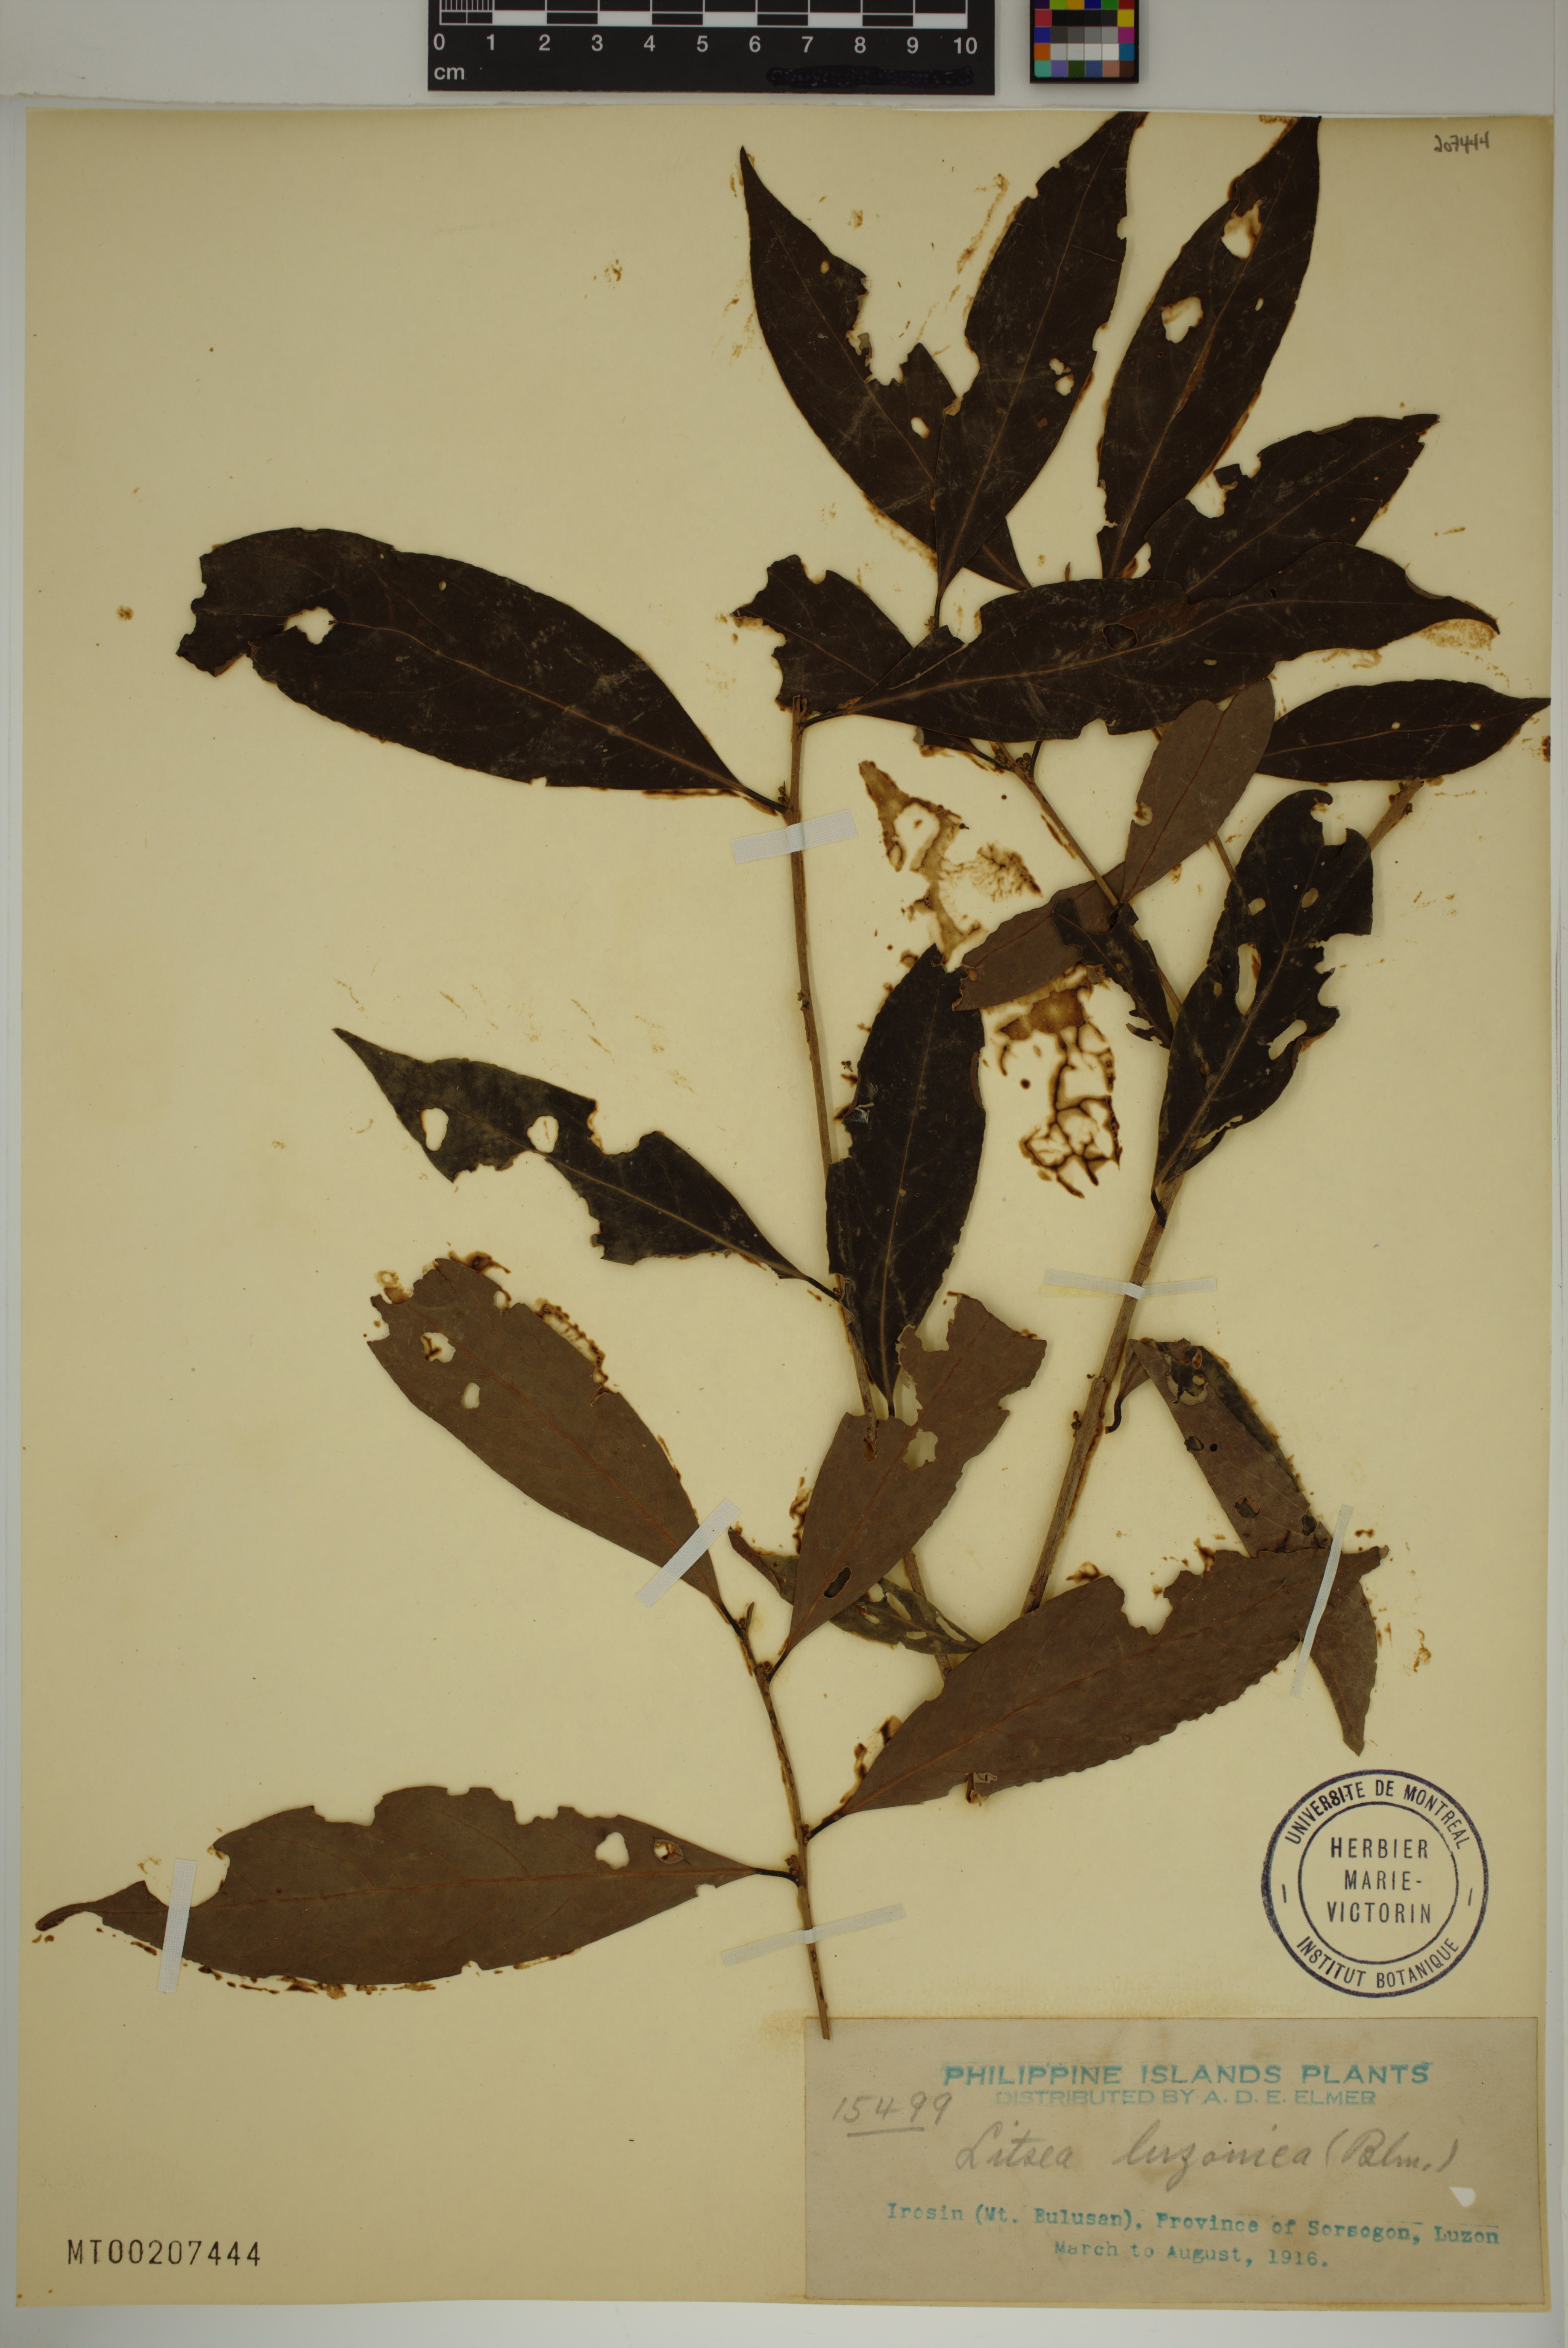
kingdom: Plantae
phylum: Tracheophyta
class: Magnoliopsida
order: Laurales
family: Lauraceae
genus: Litsea
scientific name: Litsea luzonica
